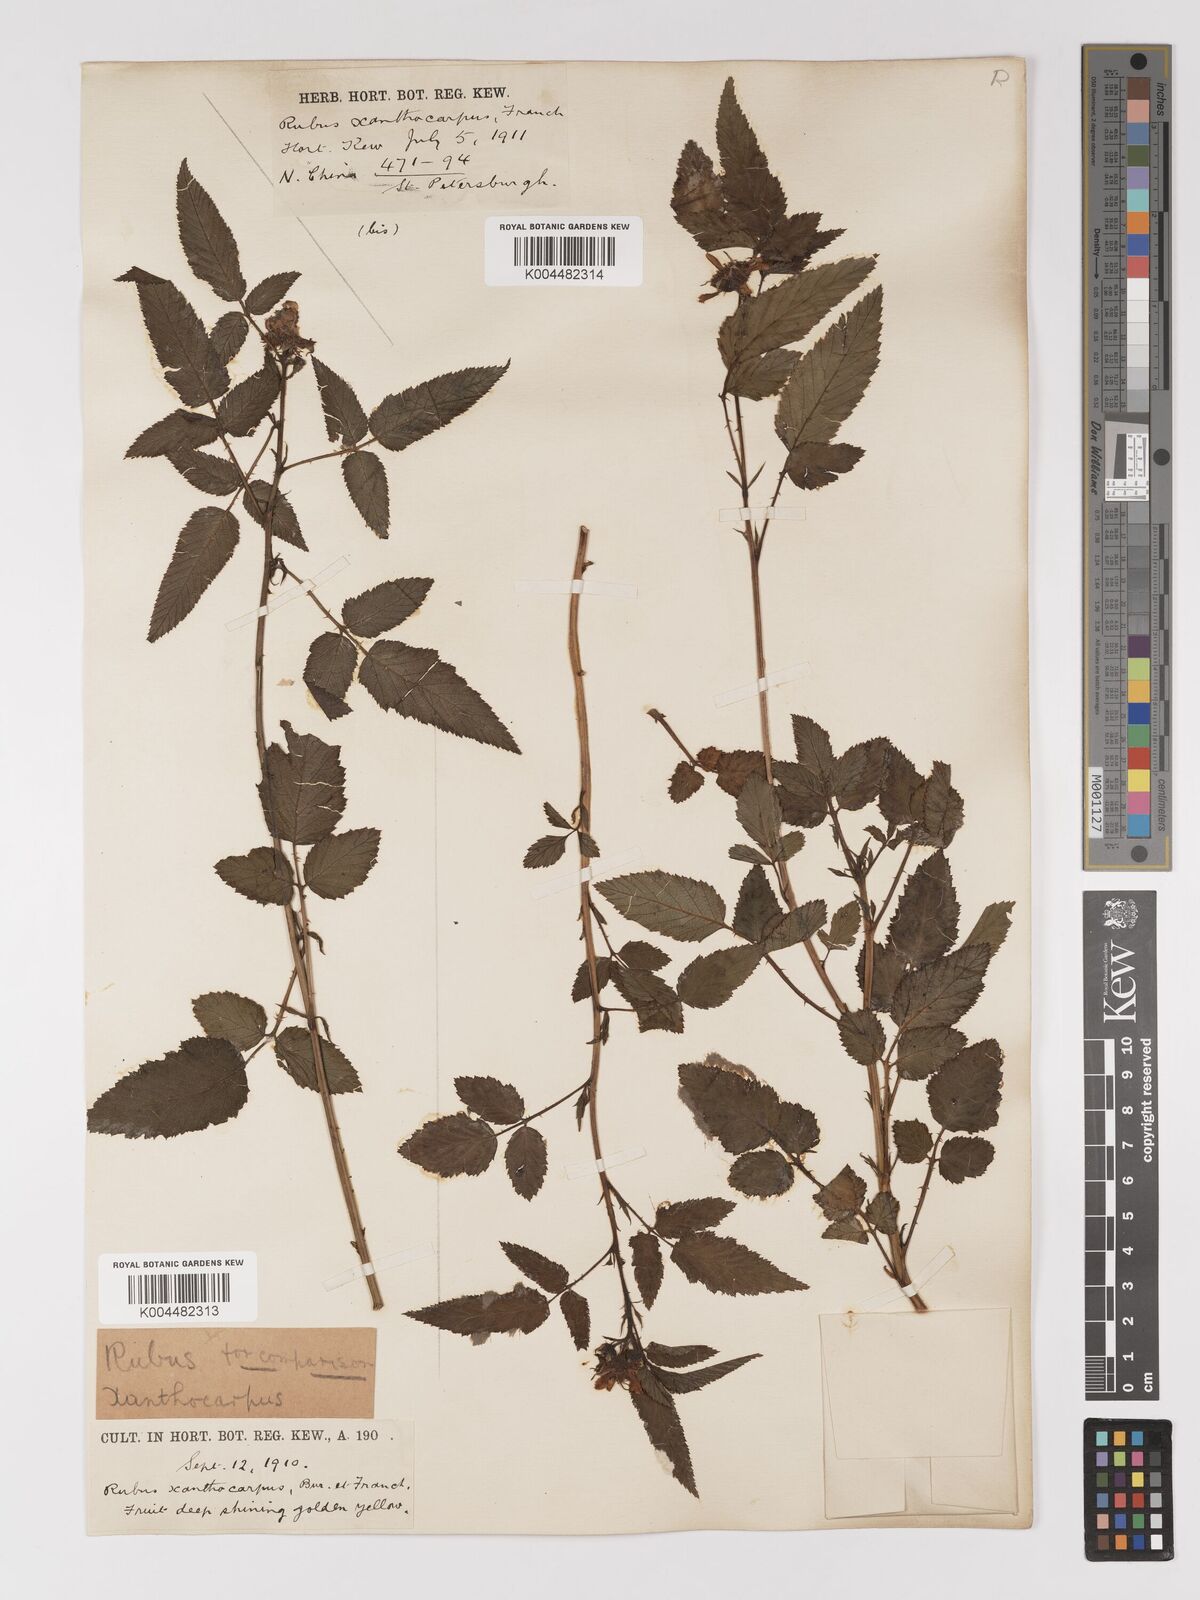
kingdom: Plantae
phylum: Tracheophyta
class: Magnoliopsida
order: Rosales
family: Rosaceae
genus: Rubus
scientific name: Rubus xanthocarpus
